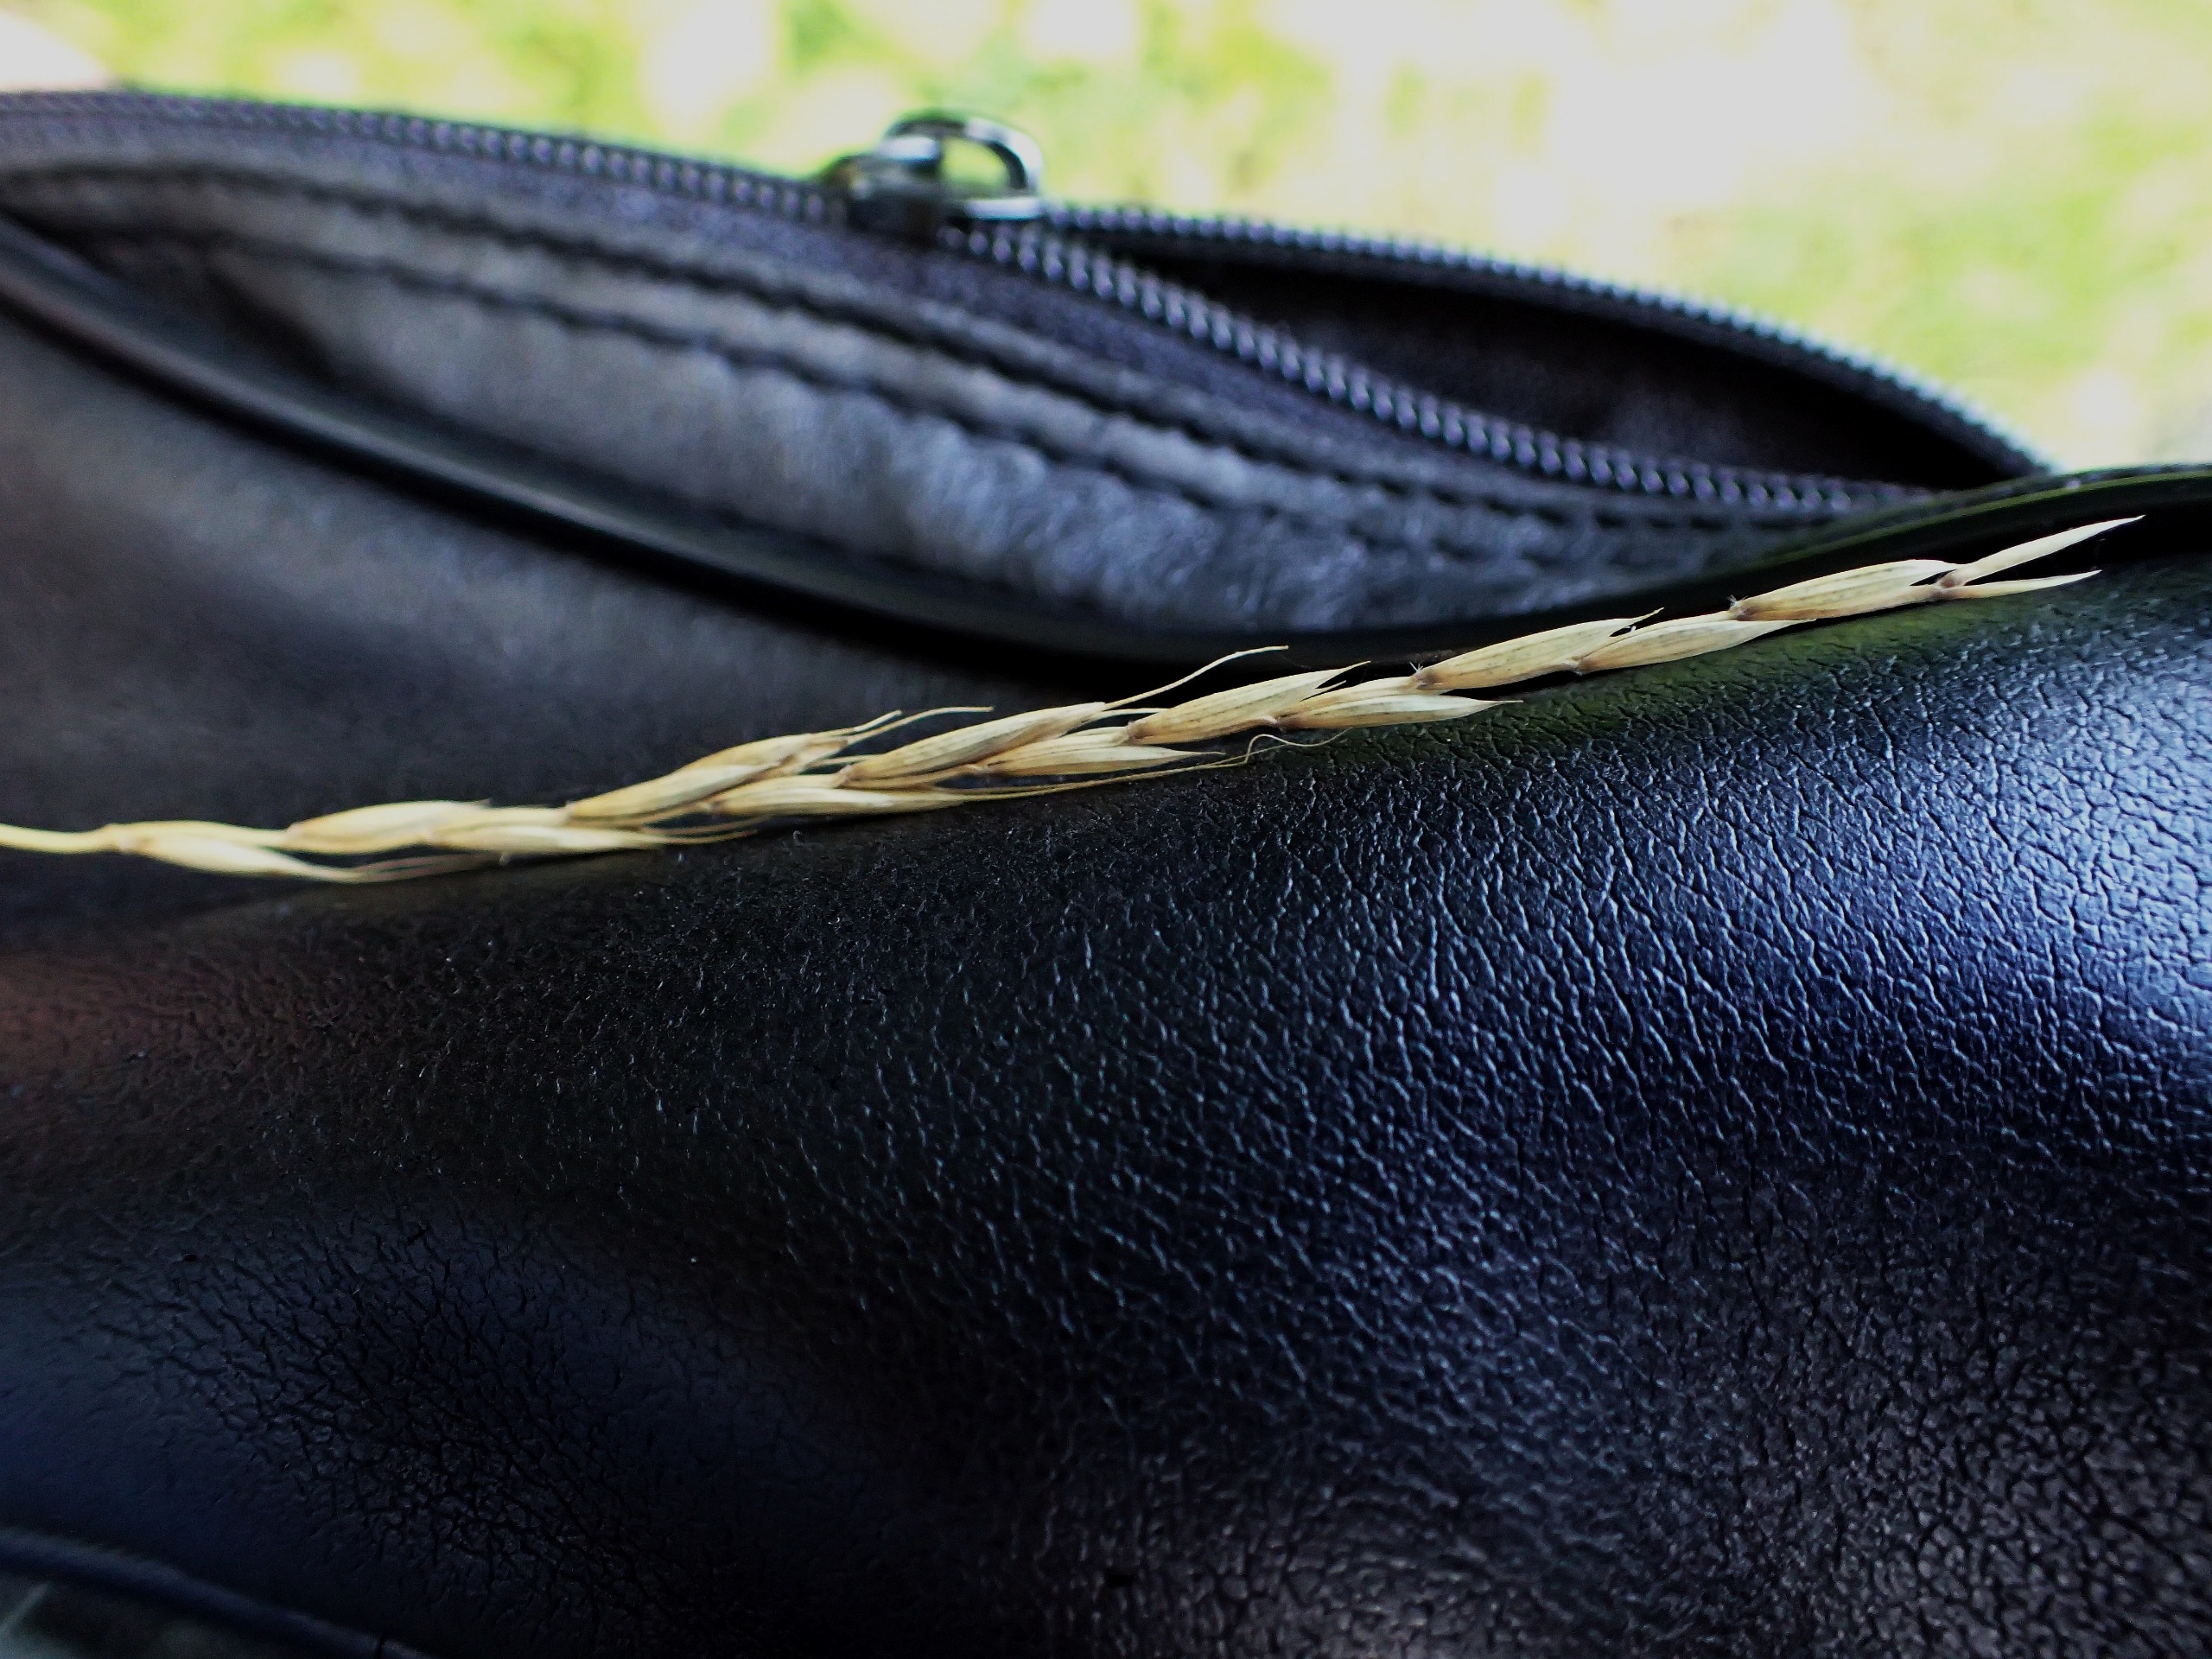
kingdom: Plantae
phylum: Tracheophyta
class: Liliopsida
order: Poales
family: Poaceae
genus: Elymus
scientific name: Elymus caninus
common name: Hundekvik
